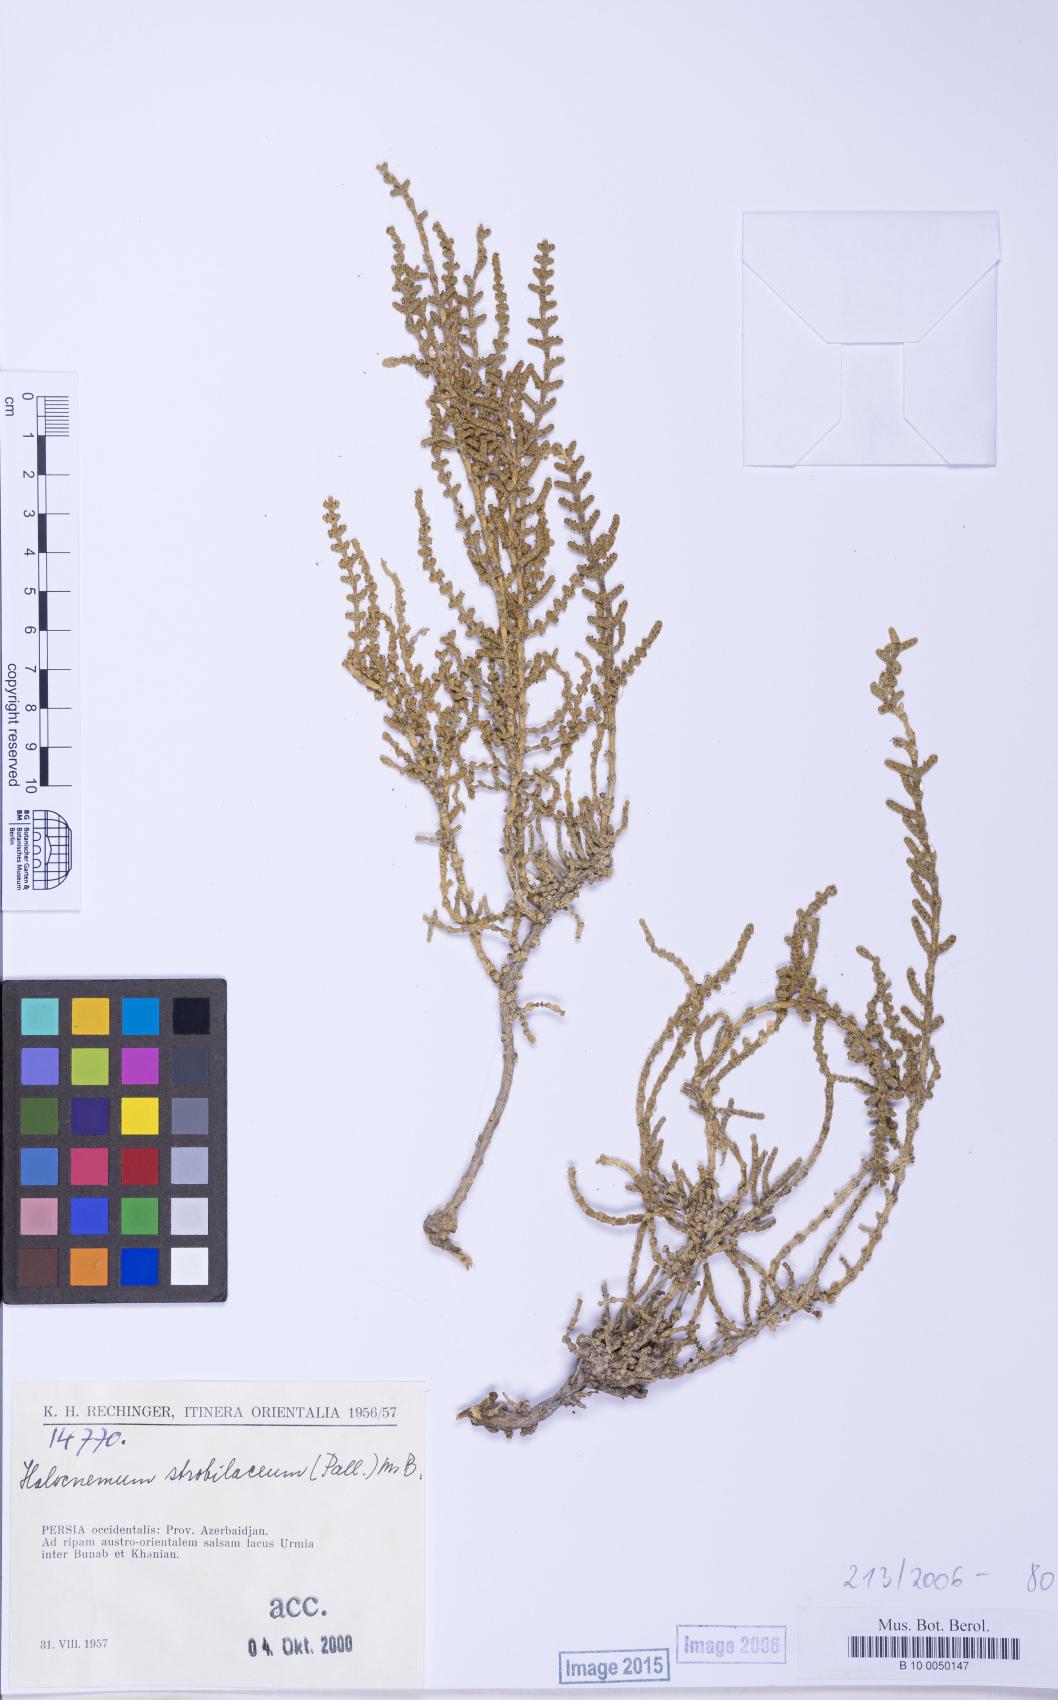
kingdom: Plantae
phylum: Tracheophyta
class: Magnoliopsida
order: Caryophyllales
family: Amaranthaceae
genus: Halocnemum
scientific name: Halocnemum strobilaceum
